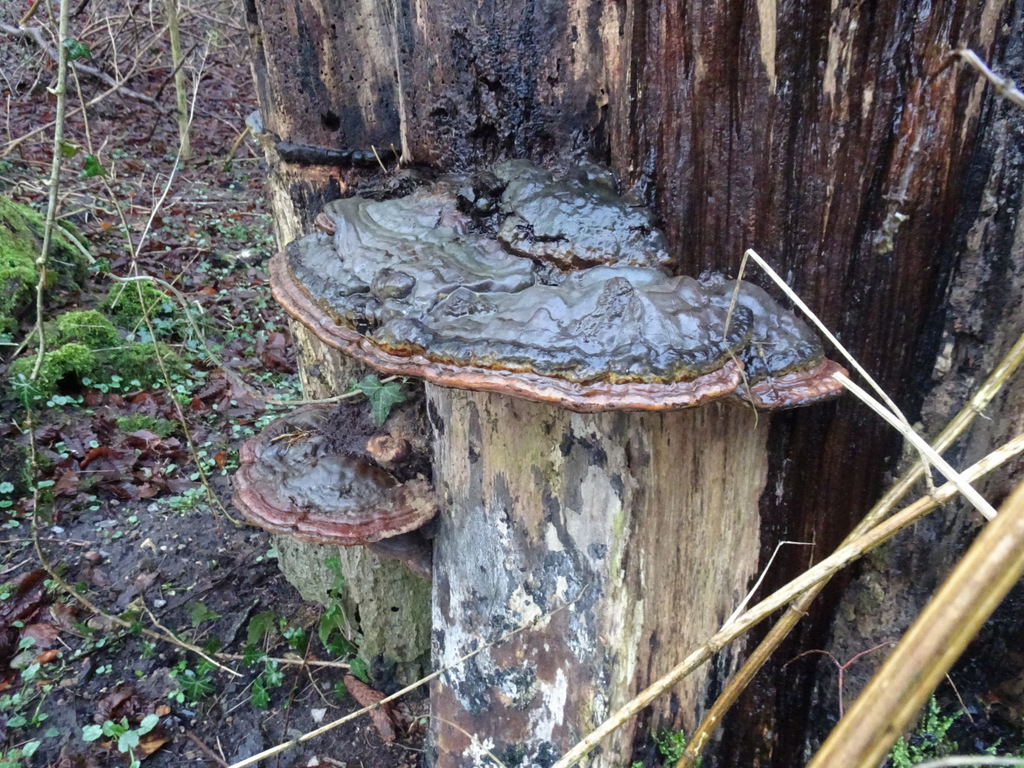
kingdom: Fungi
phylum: Basidiomycota
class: Agaricomycetes
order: Polyporales
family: Polyporaceae
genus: Ganoderma
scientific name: Ganoderma applanatum
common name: flad lakporesvamp
